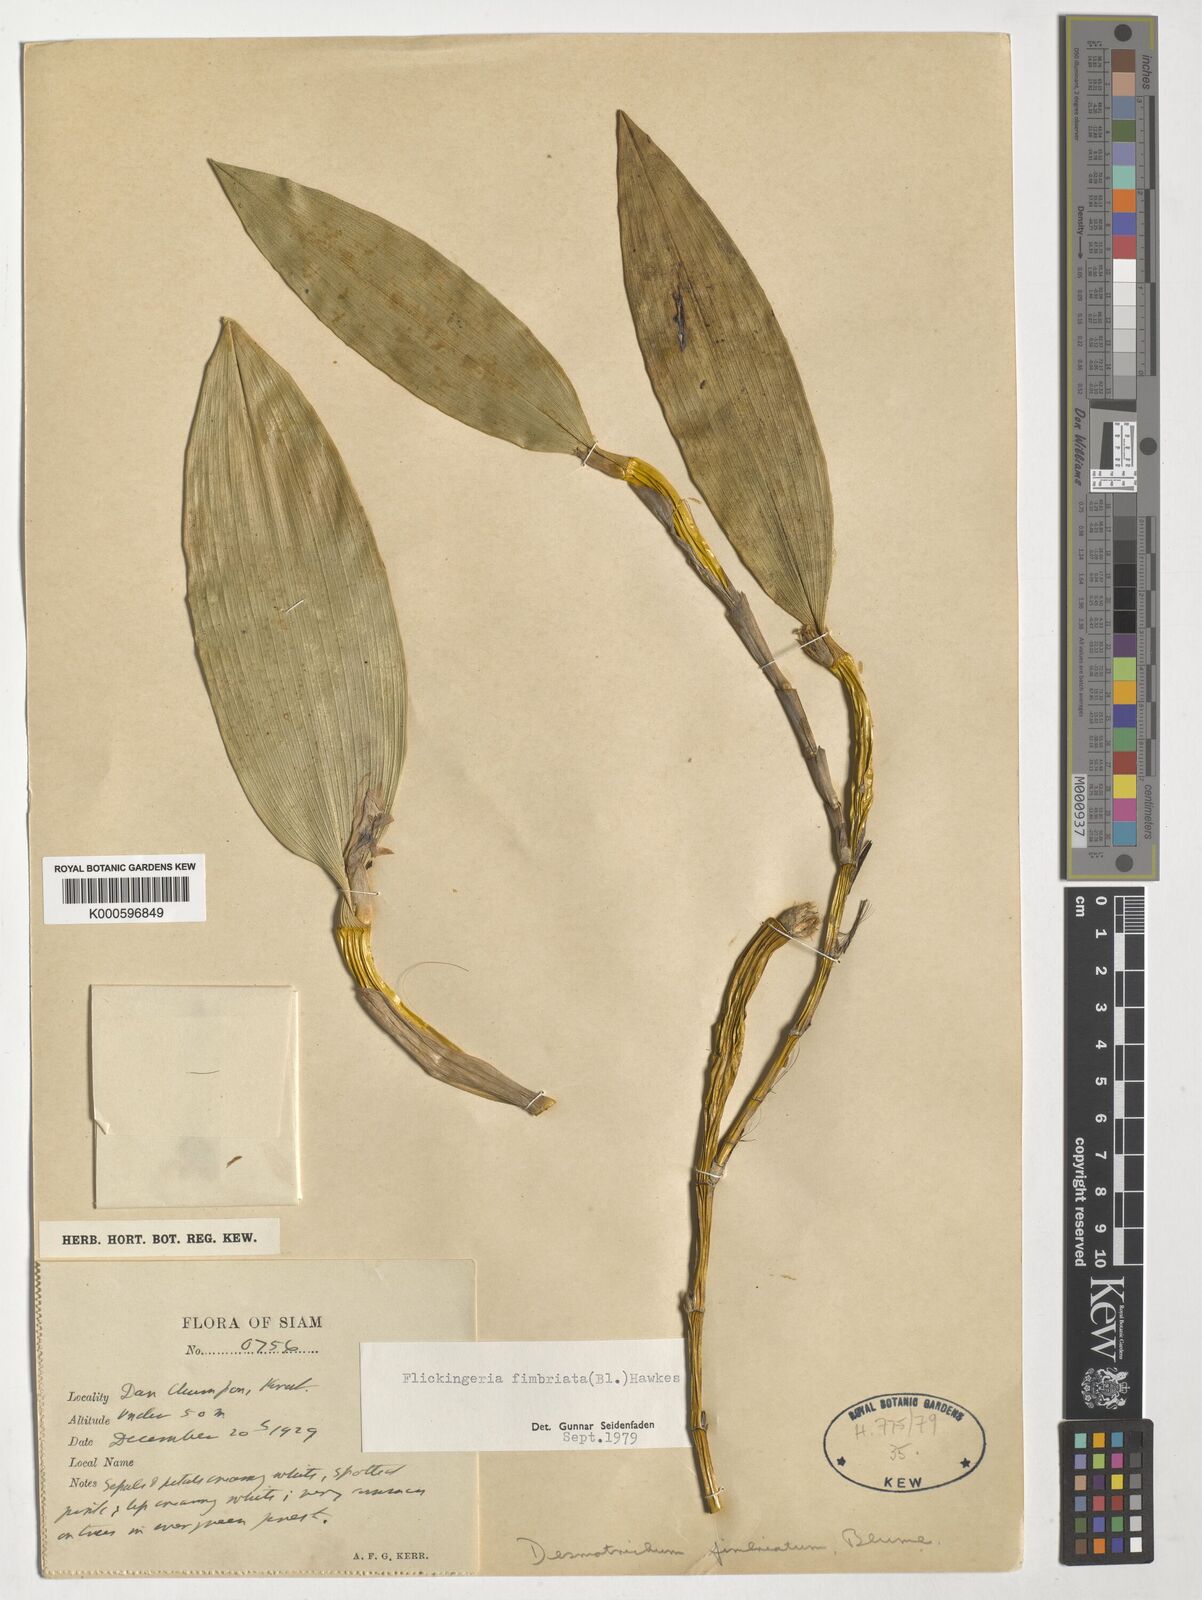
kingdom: Plantae
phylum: Tracheophyta
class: Liliopsida
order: Asparagales
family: Orchidaceae
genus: Dendrobium
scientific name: Dendrobium plicatile
